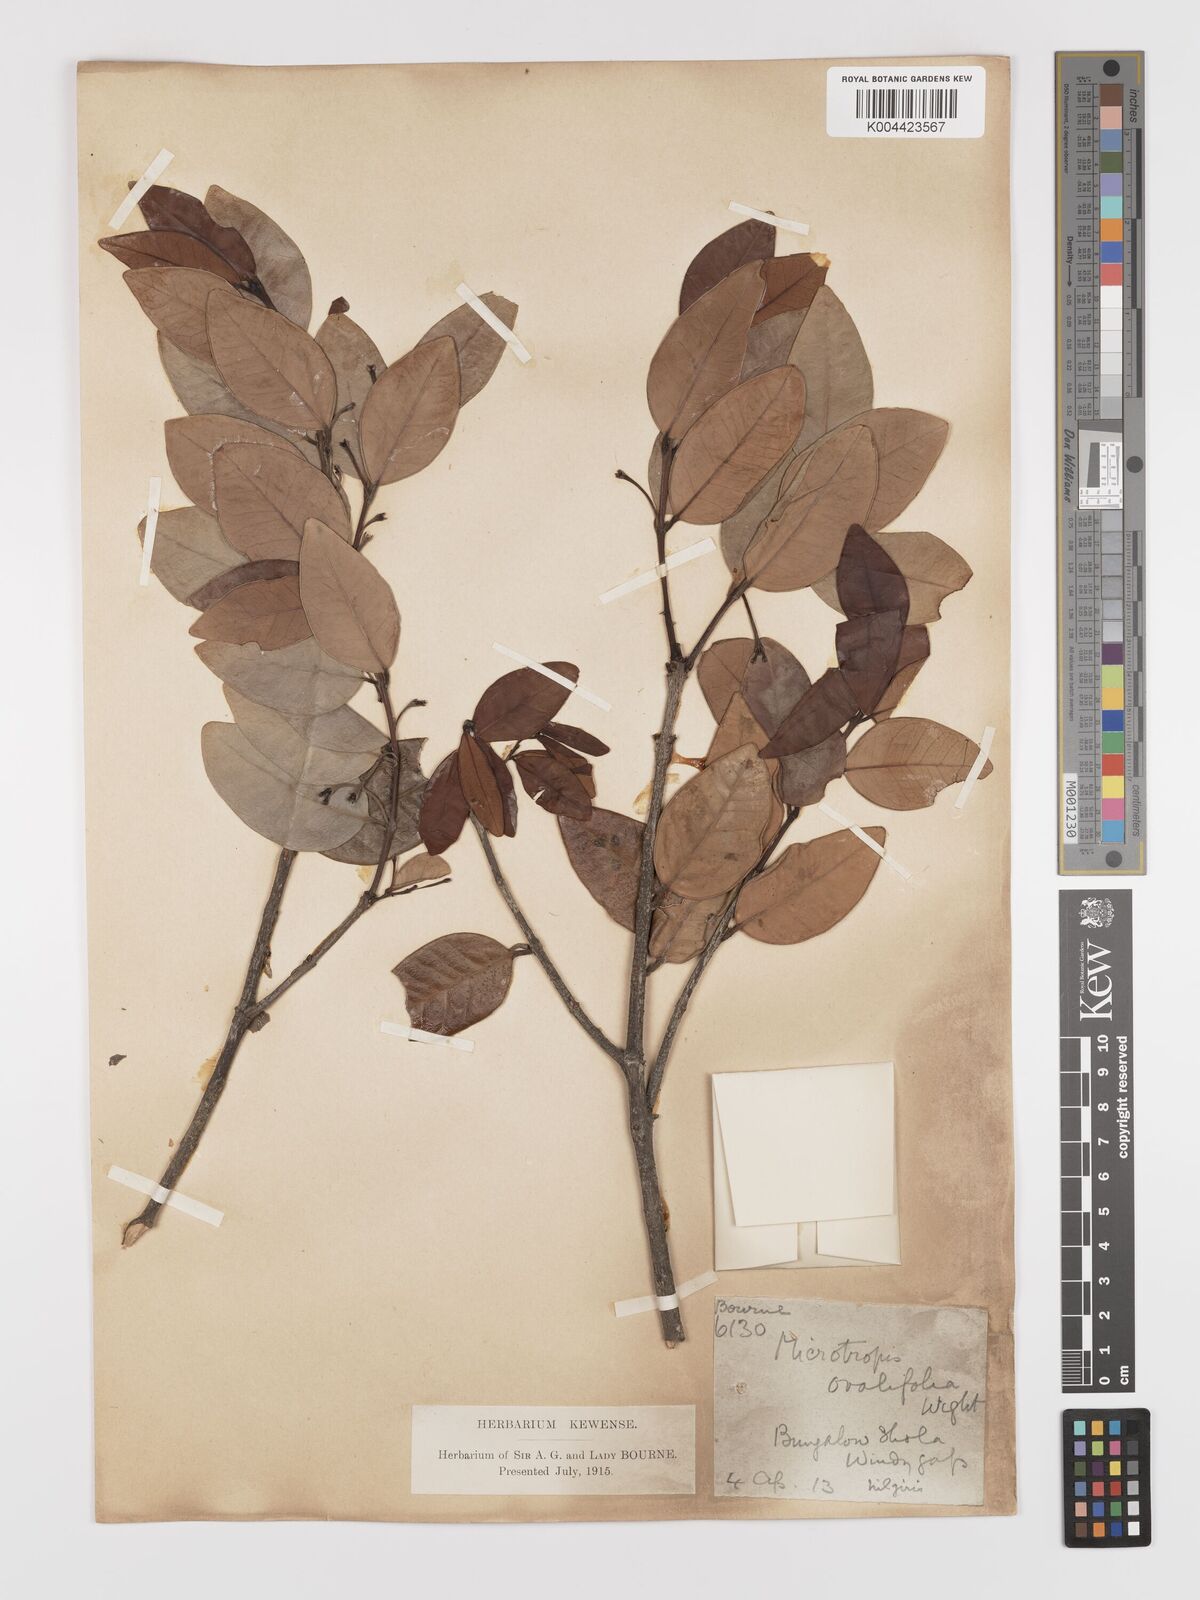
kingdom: Plantae
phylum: Tracheophyta
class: Magnoliopsida
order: Celastrales
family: Celastraceae
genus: Microtropis
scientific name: Microtropis microcarpa
